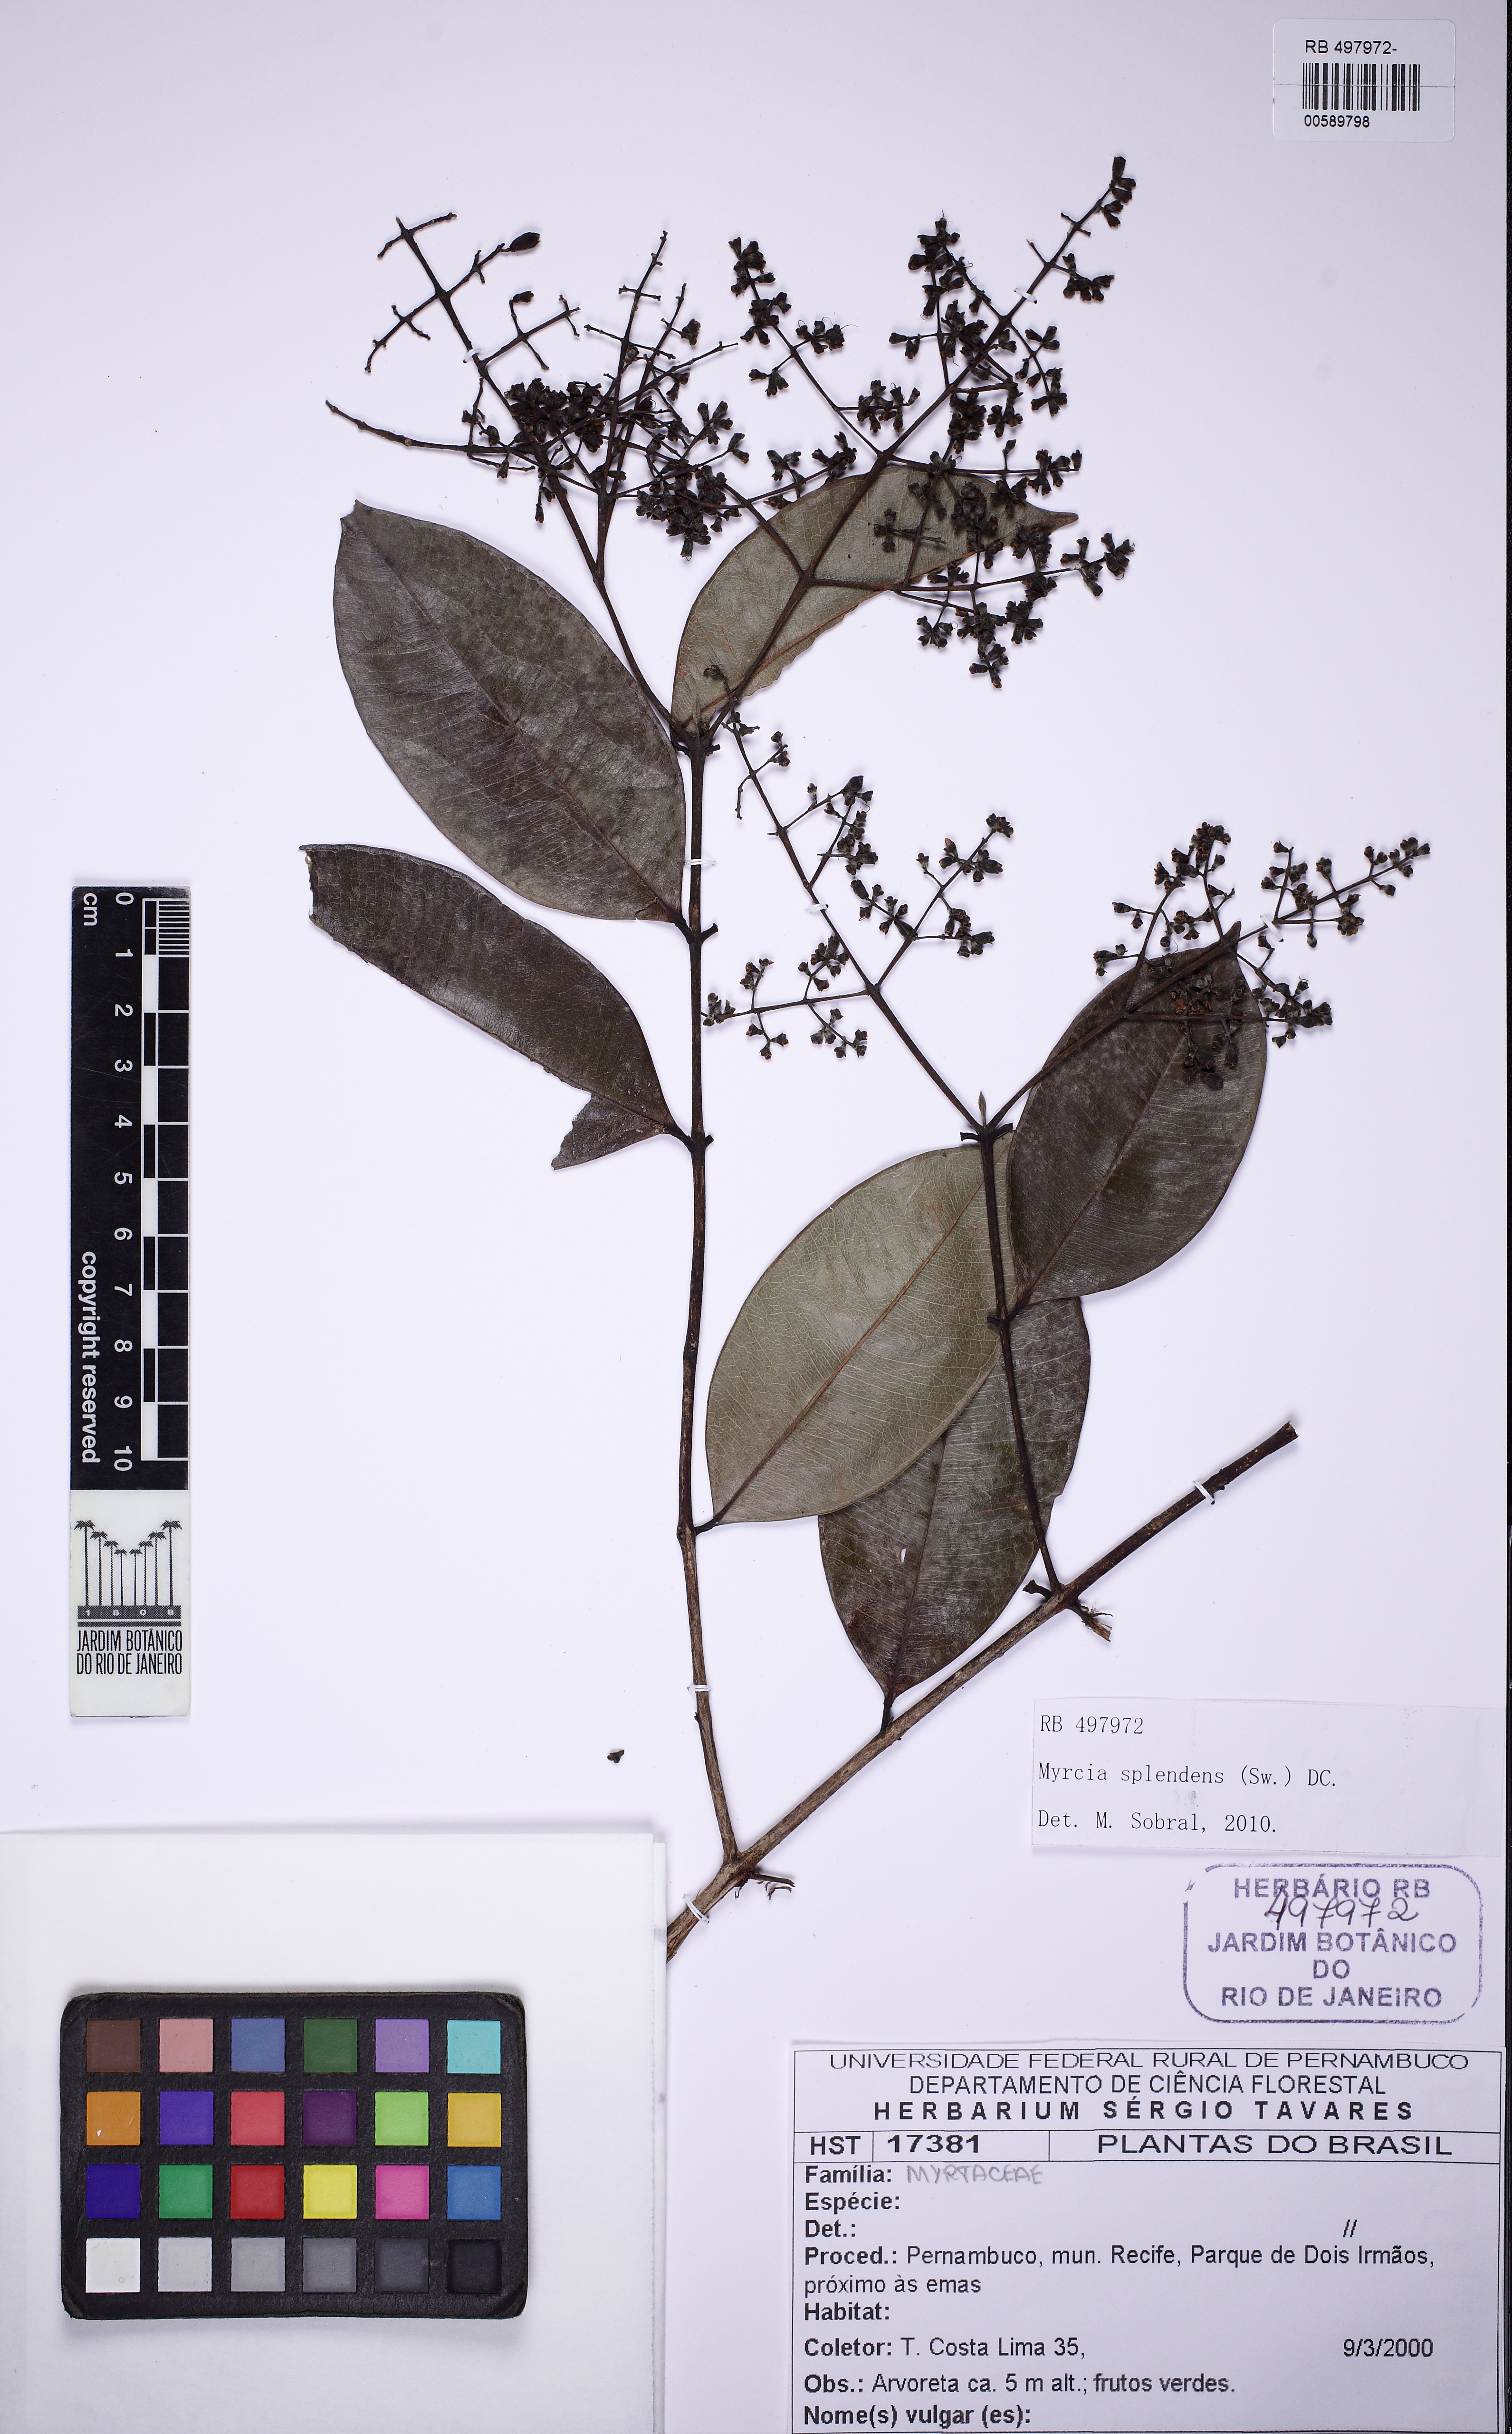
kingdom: Plantae
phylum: Tracheophyta
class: Magnoliopsida
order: Myrtales
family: Myrtaceae
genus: Myrcia
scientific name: Myrcia splendens
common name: Surinam cherry
